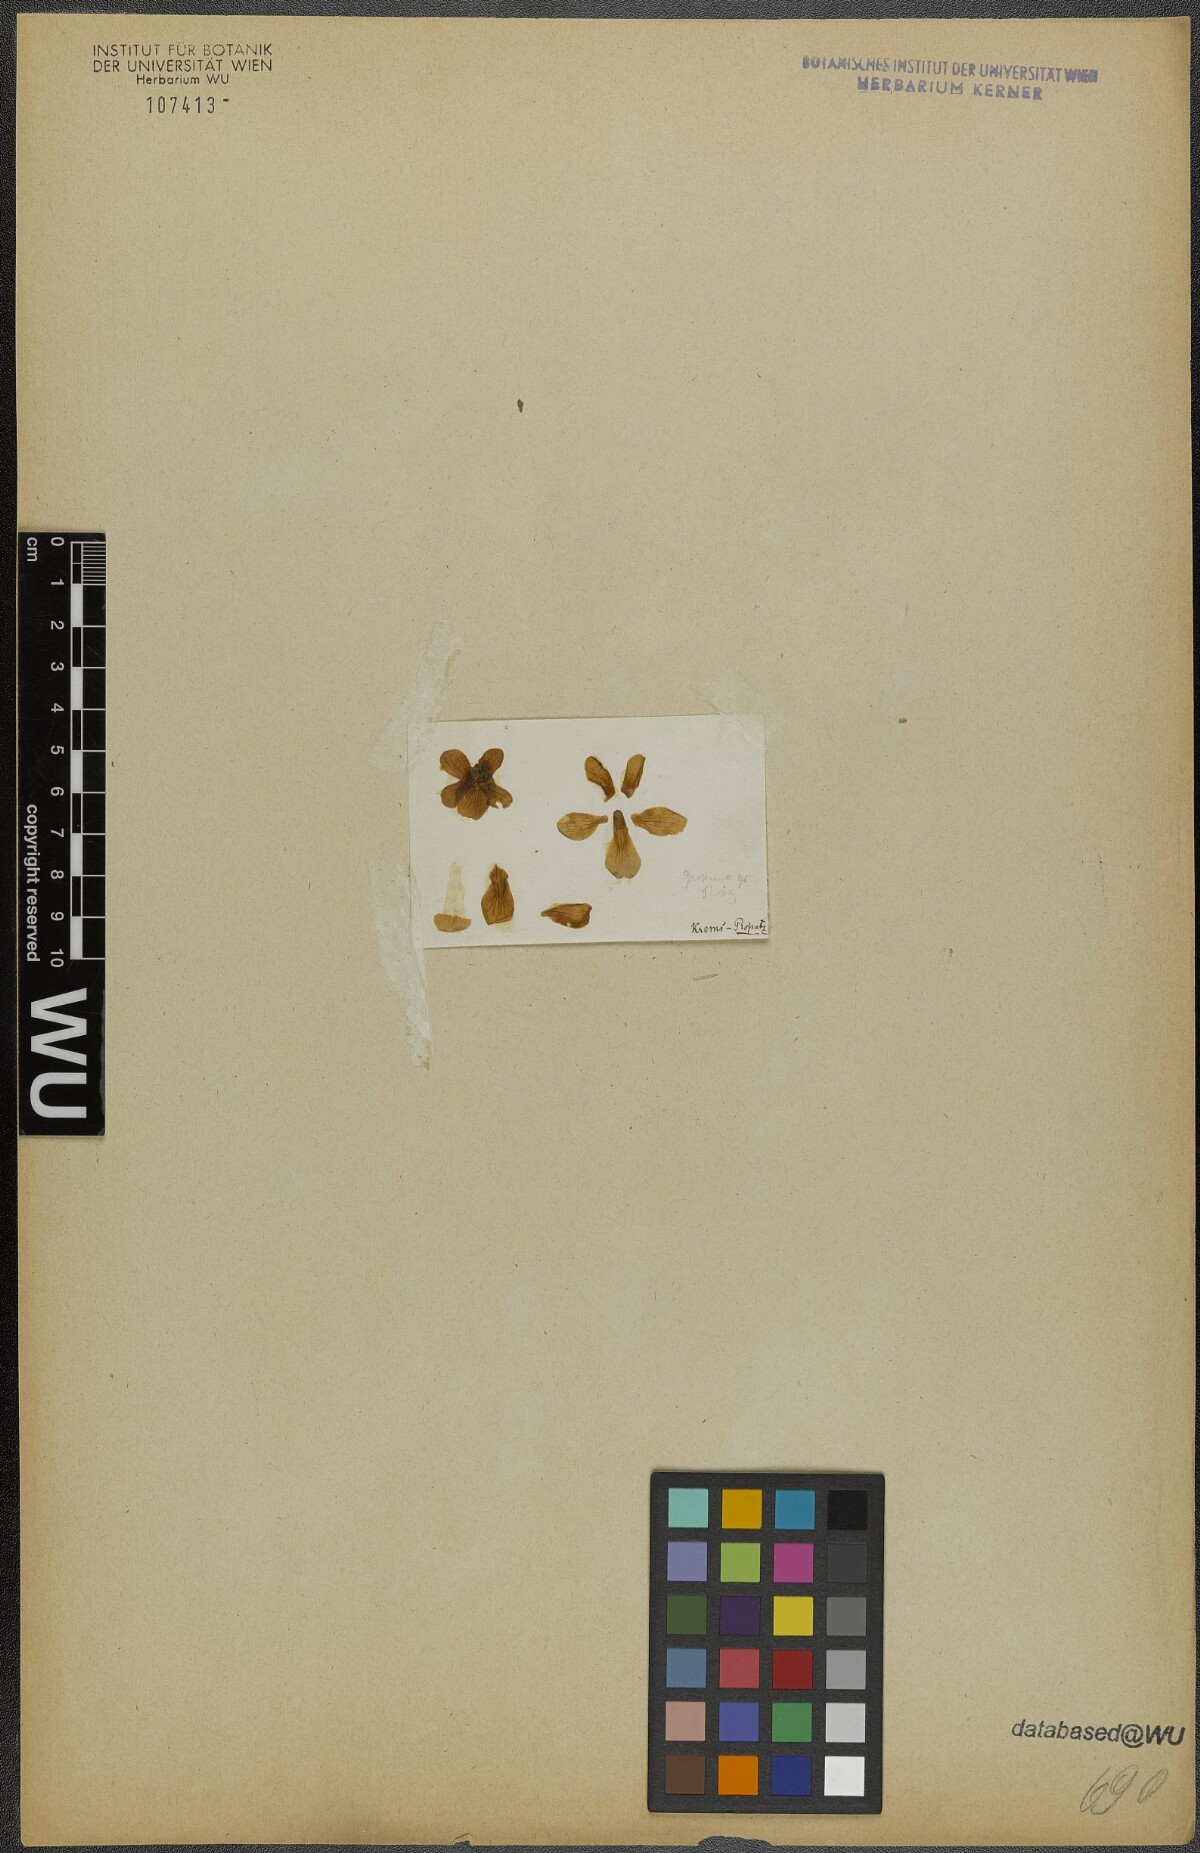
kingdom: Plantae
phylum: Tracheophyta
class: Magnoliopsida
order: Malpighiales
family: Violaceae
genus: Viola
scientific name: Viola suavis
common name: Russian violet
